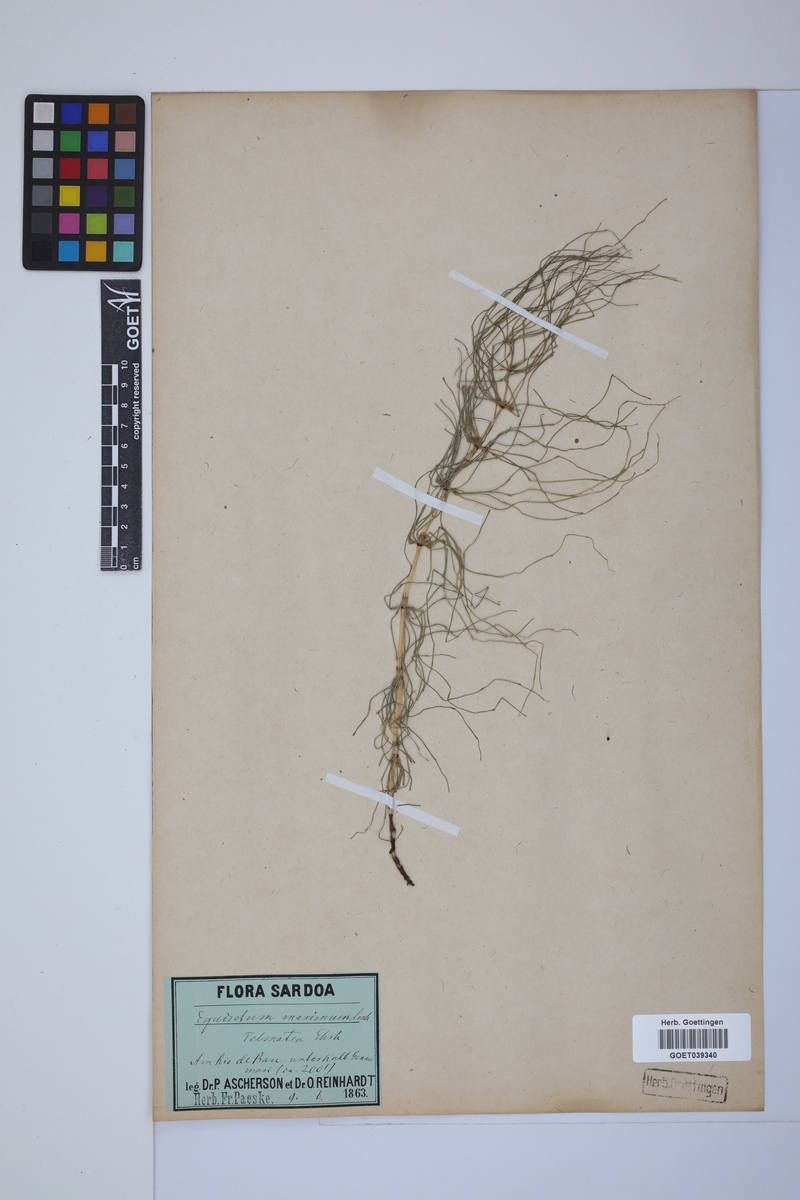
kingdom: Plantae
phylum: Tracheophyta
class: Polypodiopsida
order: Equisetales
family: Equisetaceae
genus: Equisetum
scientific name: Equisetum telmateia
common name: Great horsetail
